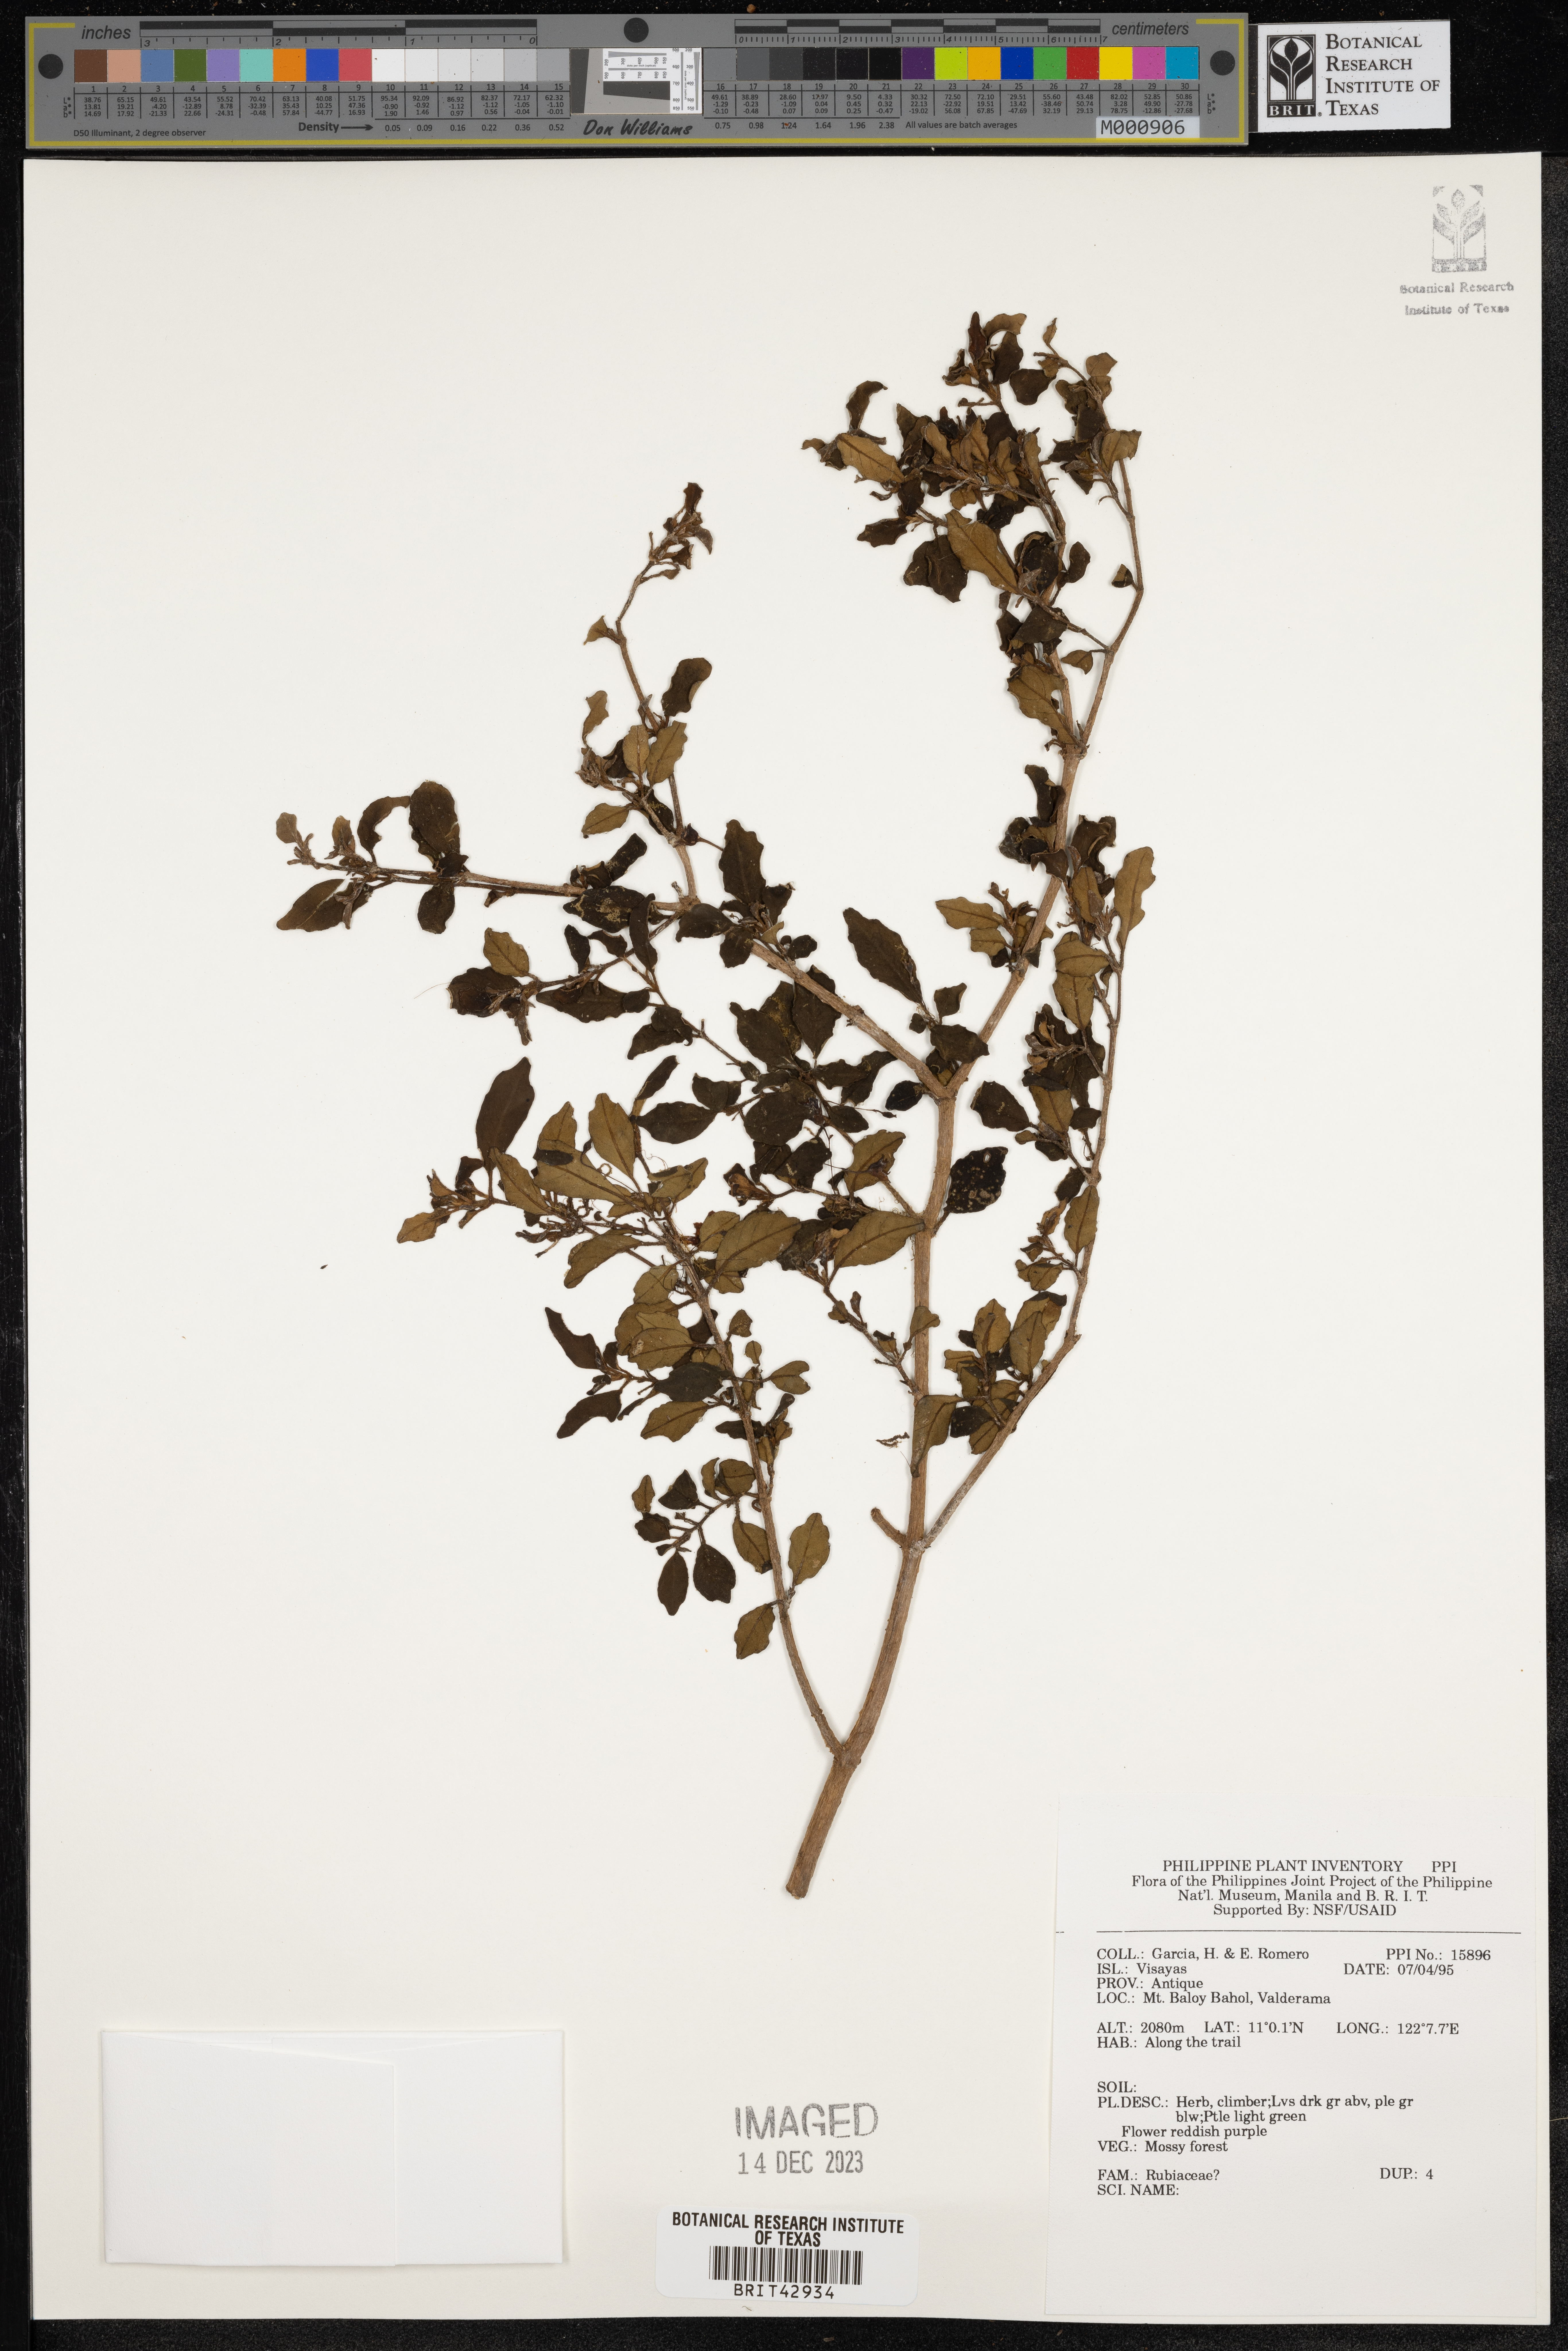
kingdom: Plantae
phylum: Tracheophyta
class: Magnoliopsida
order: Gentianales
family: Rubiaceae
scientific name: Rubiaceae
